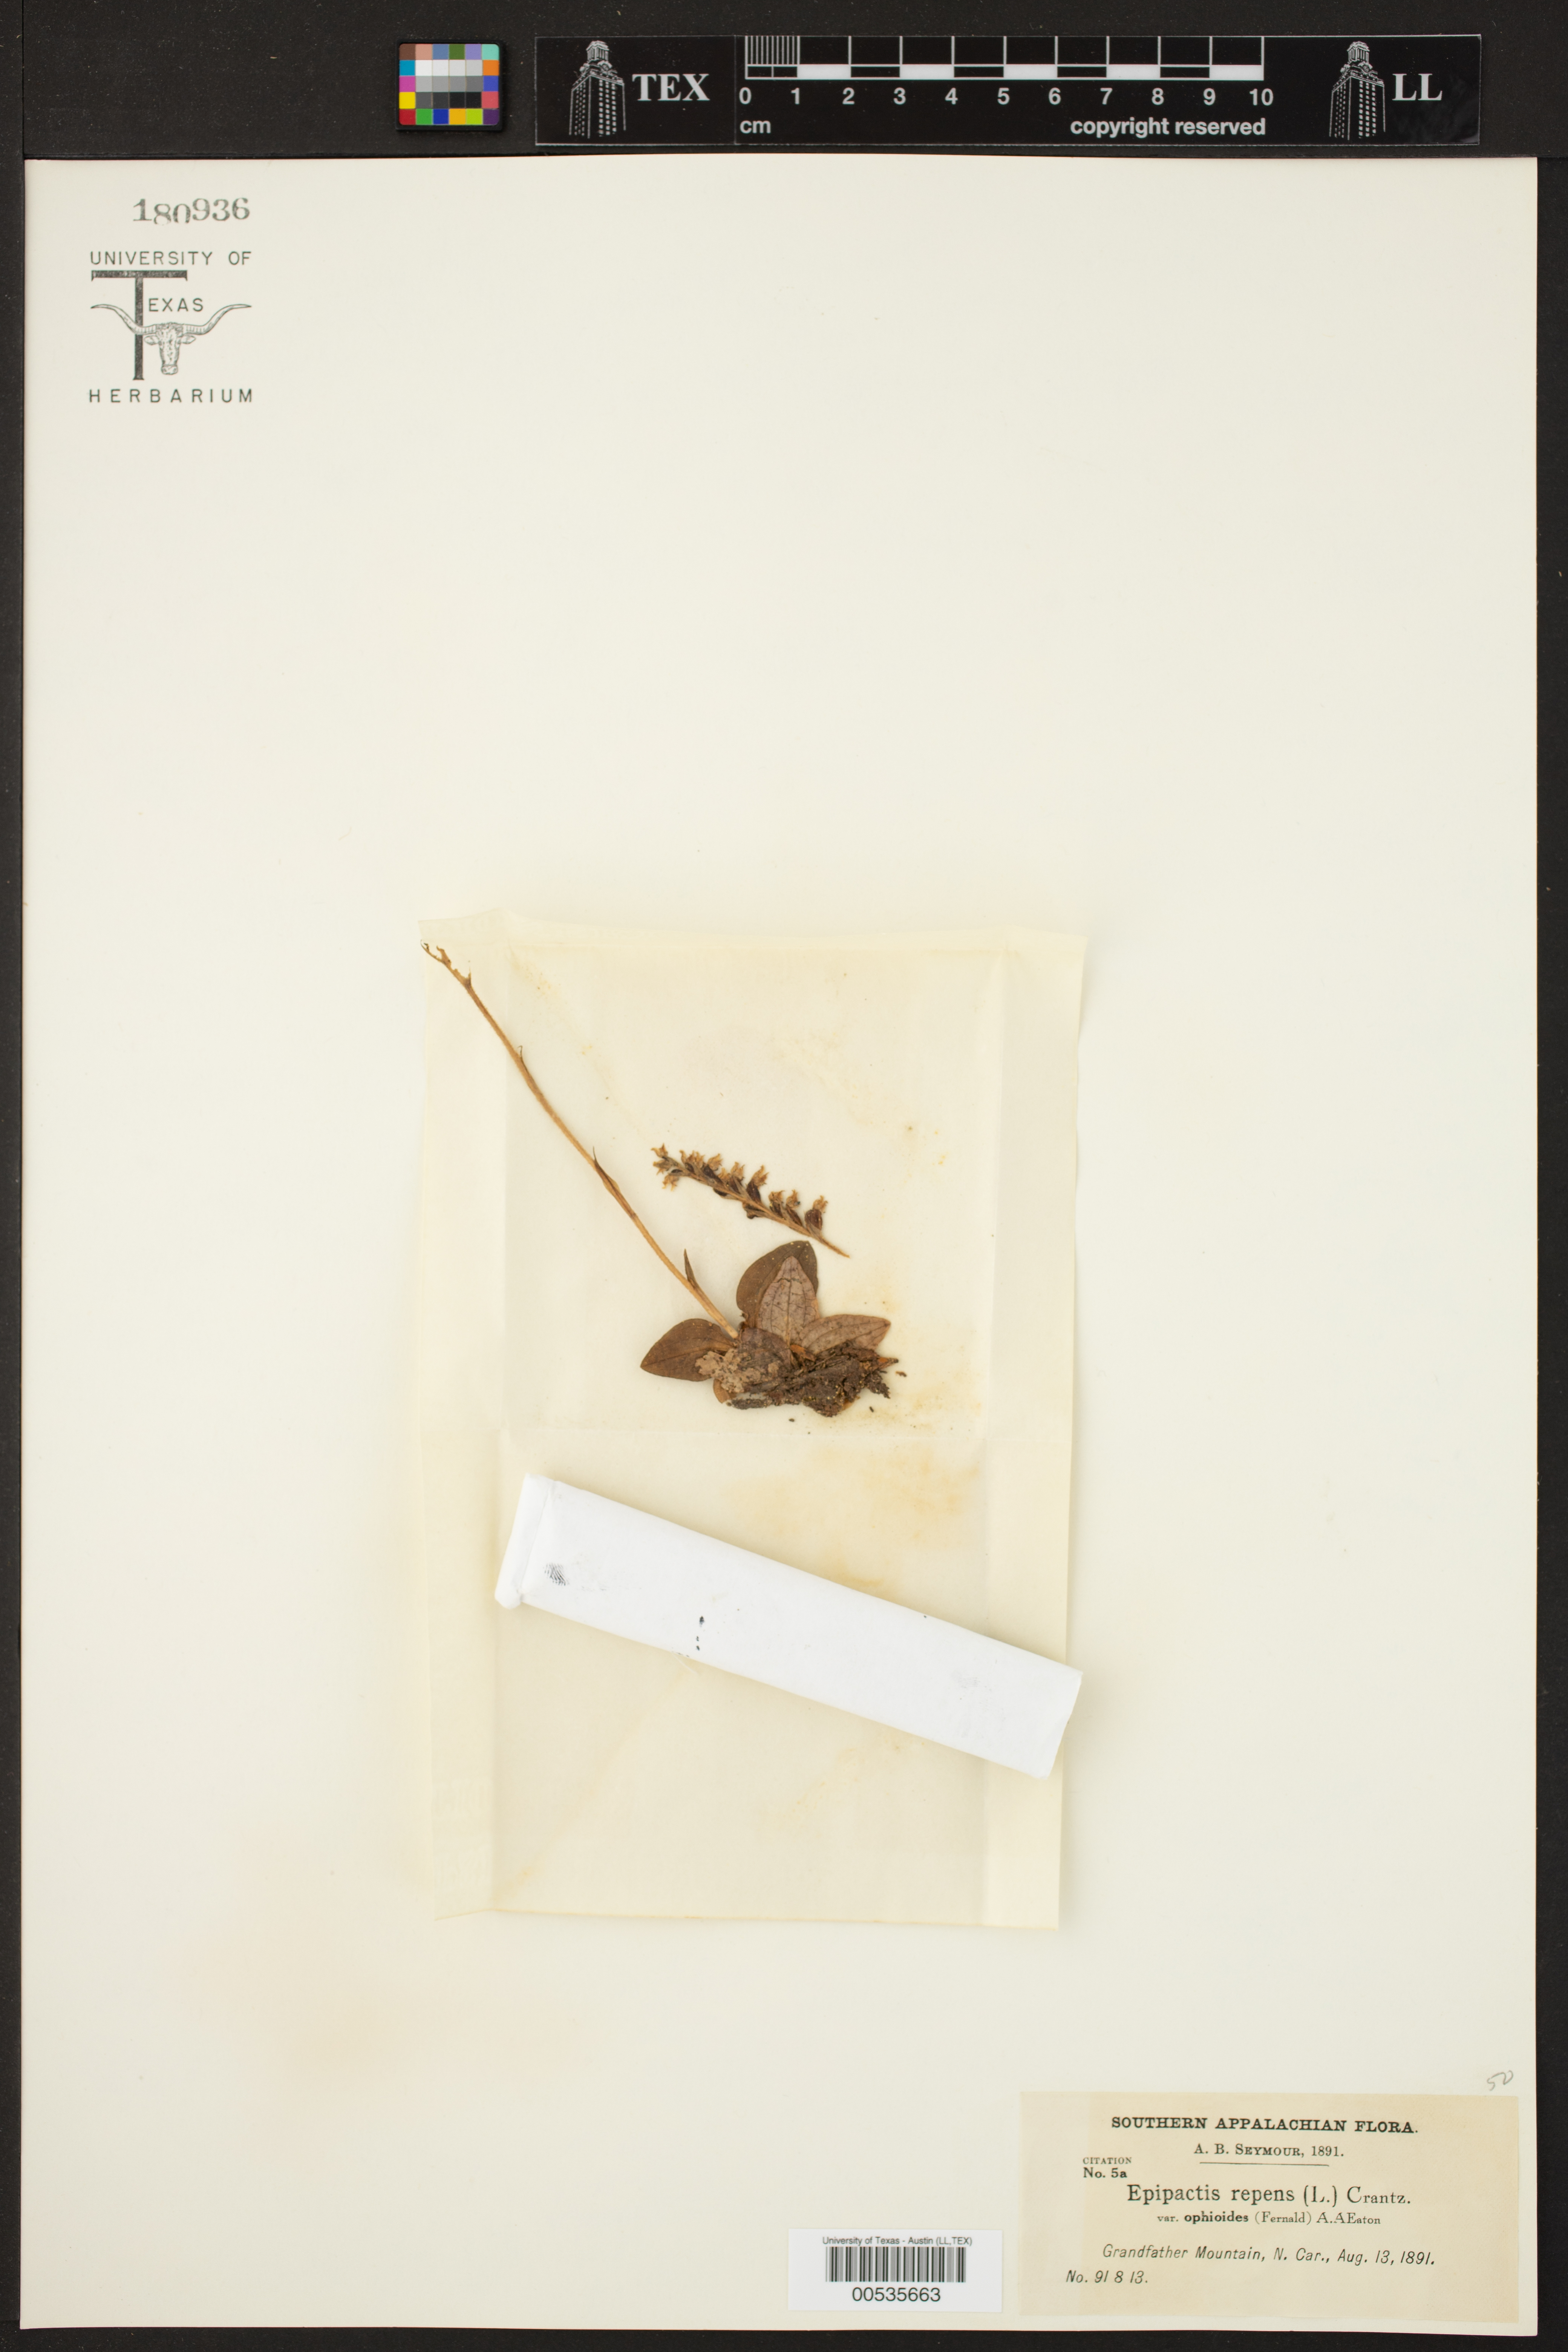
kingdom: Plantae
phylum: Tracheophyta
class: Liliopsida
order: Asparagales
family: Orchidaceae
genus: Goodyera
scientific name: Goodyera repens
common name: Creeping lady's-tresses
